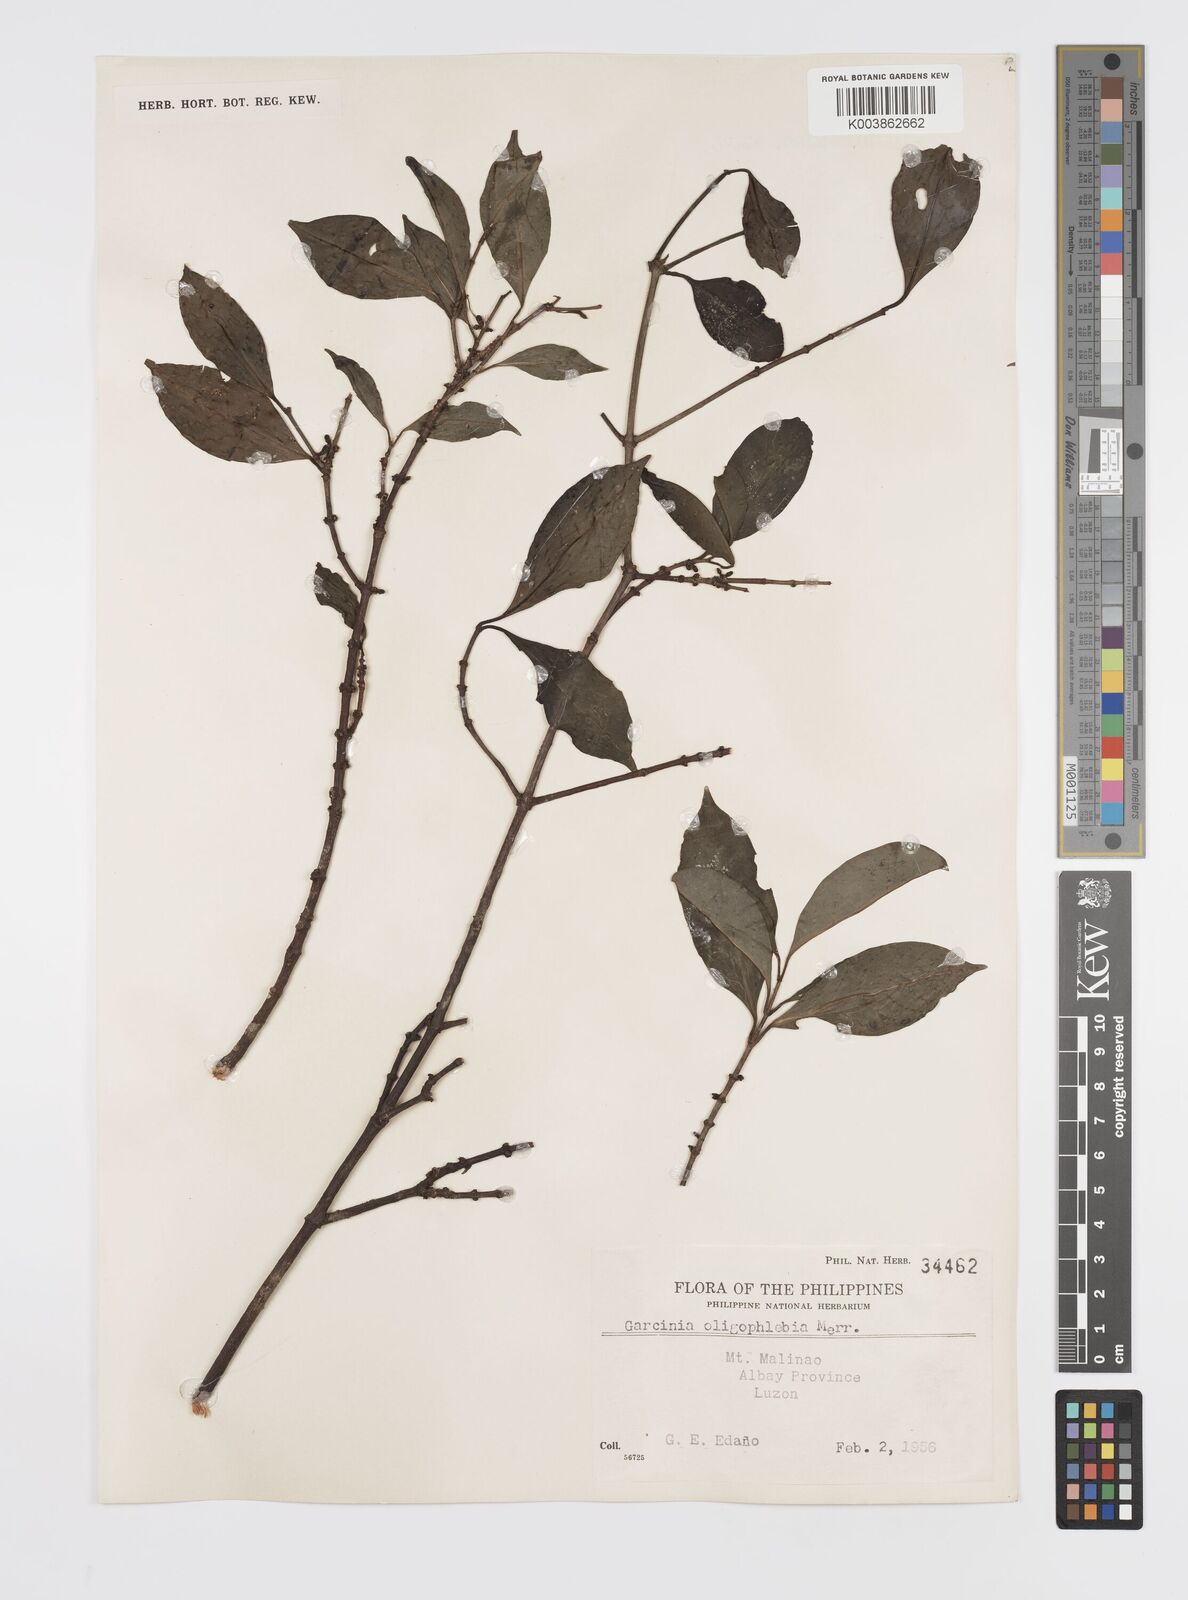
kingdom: Plantae
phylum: Tracheophyta
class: Magnoliopsida
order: Malpighiales
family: Clusiaceae
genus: Garcinia
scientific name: Garcinia rubra
